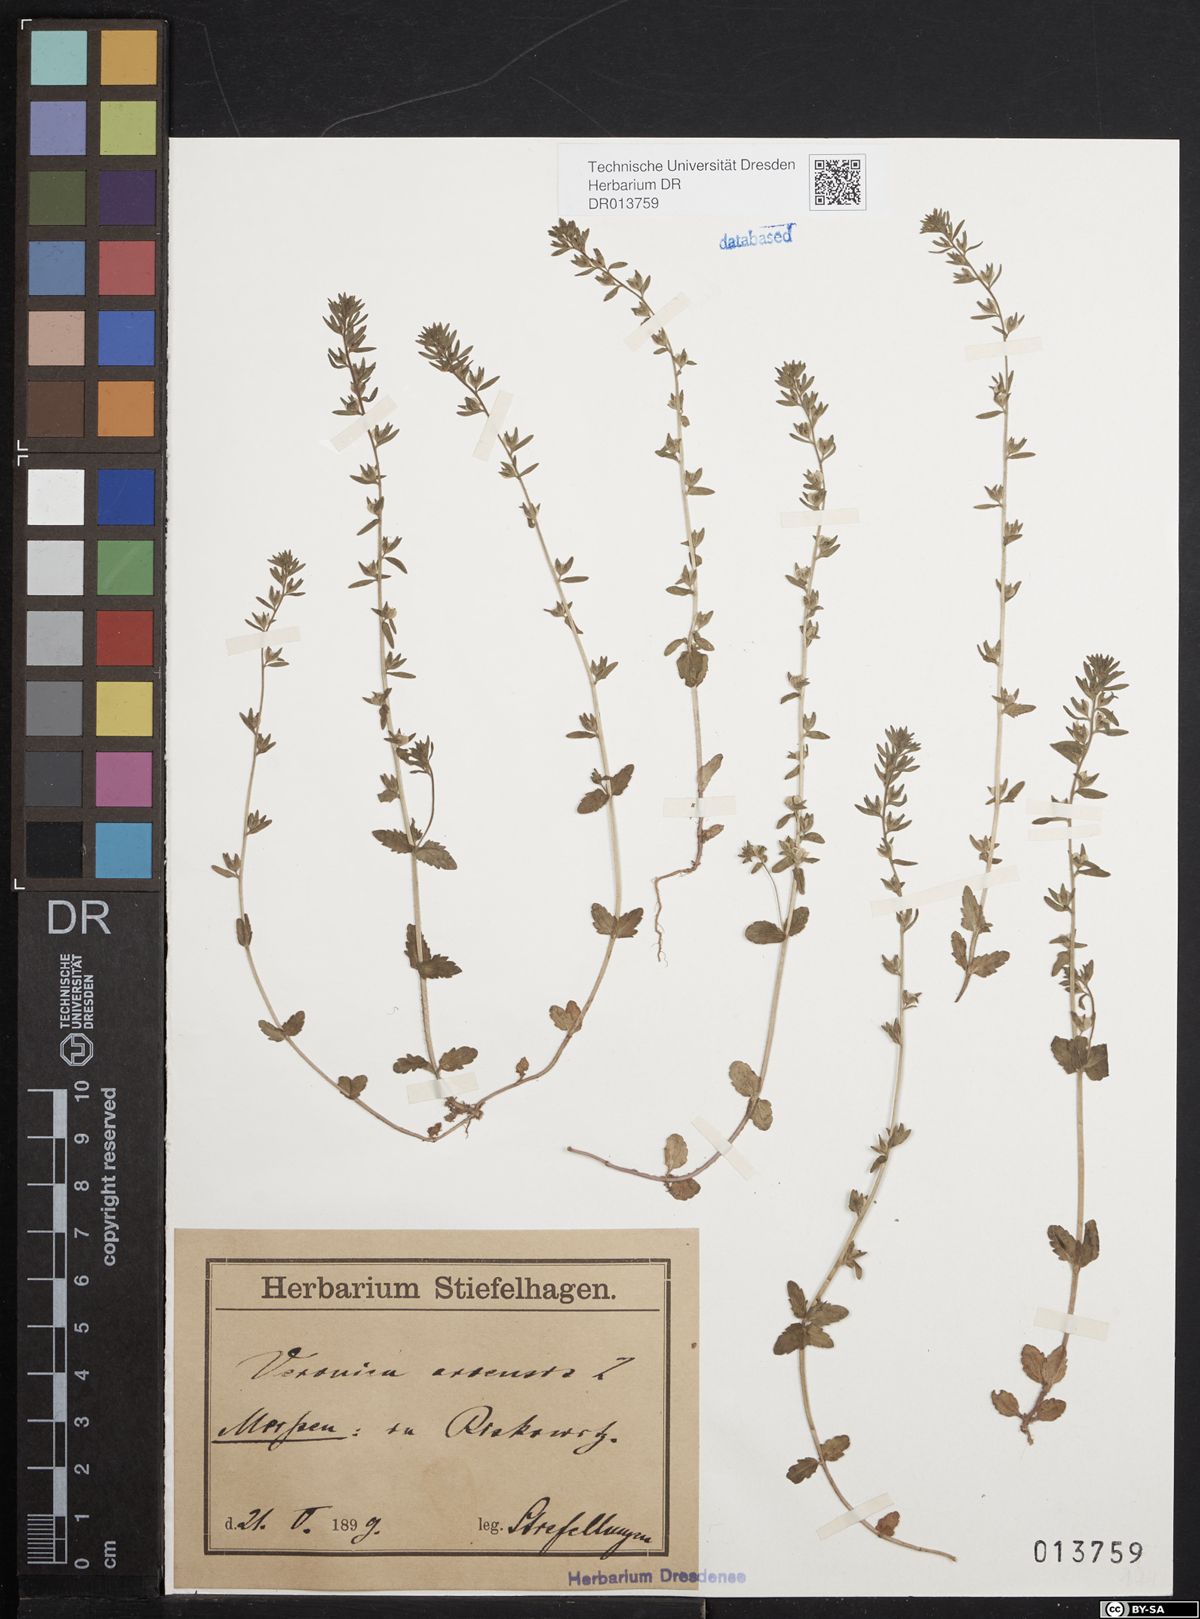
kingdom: Plantae
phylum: Tracheophyta
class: Magnoliopsida
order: Lamiales
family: Plantaginaceae
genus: Veronica
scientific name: Veronica arvensis
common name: Corn speedwell
